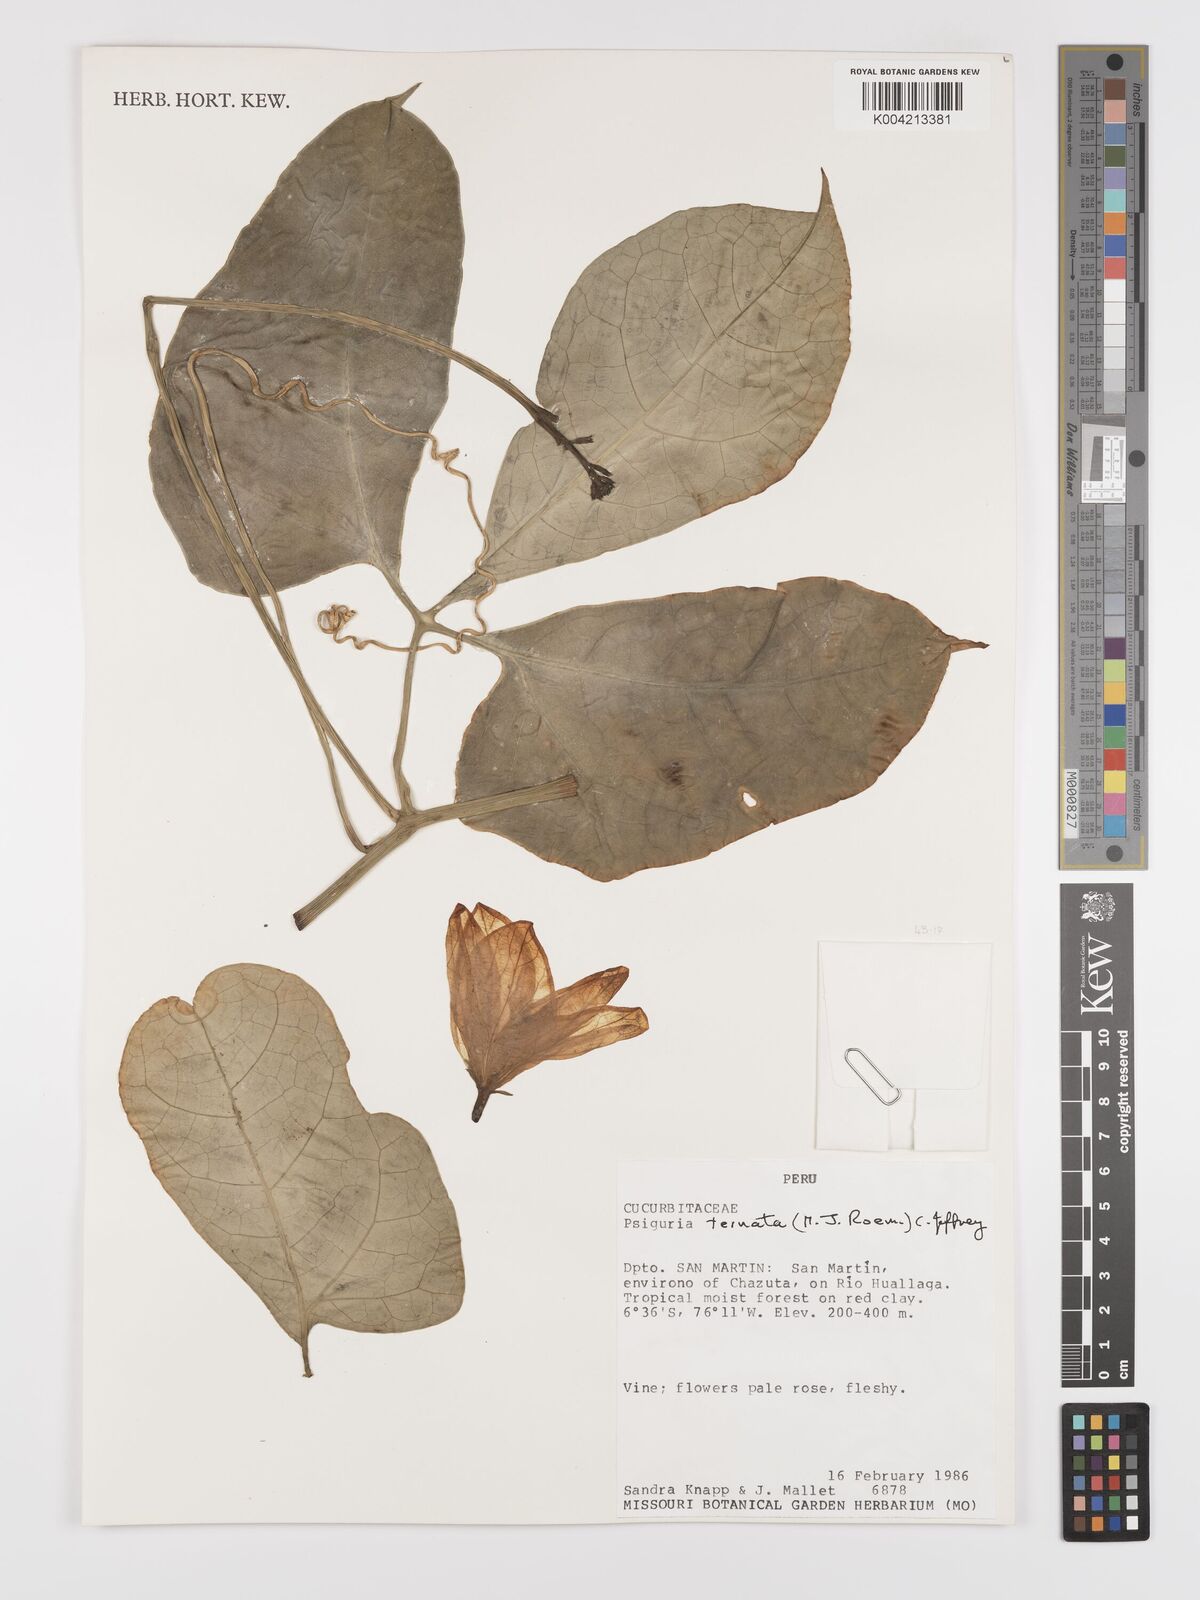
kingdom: Plantae
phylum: Tracheophyta
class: Magnoliopsida
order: Cucurbitales
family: Cucurbitaceae
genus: Psiguria
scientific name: Psiguria ternata
